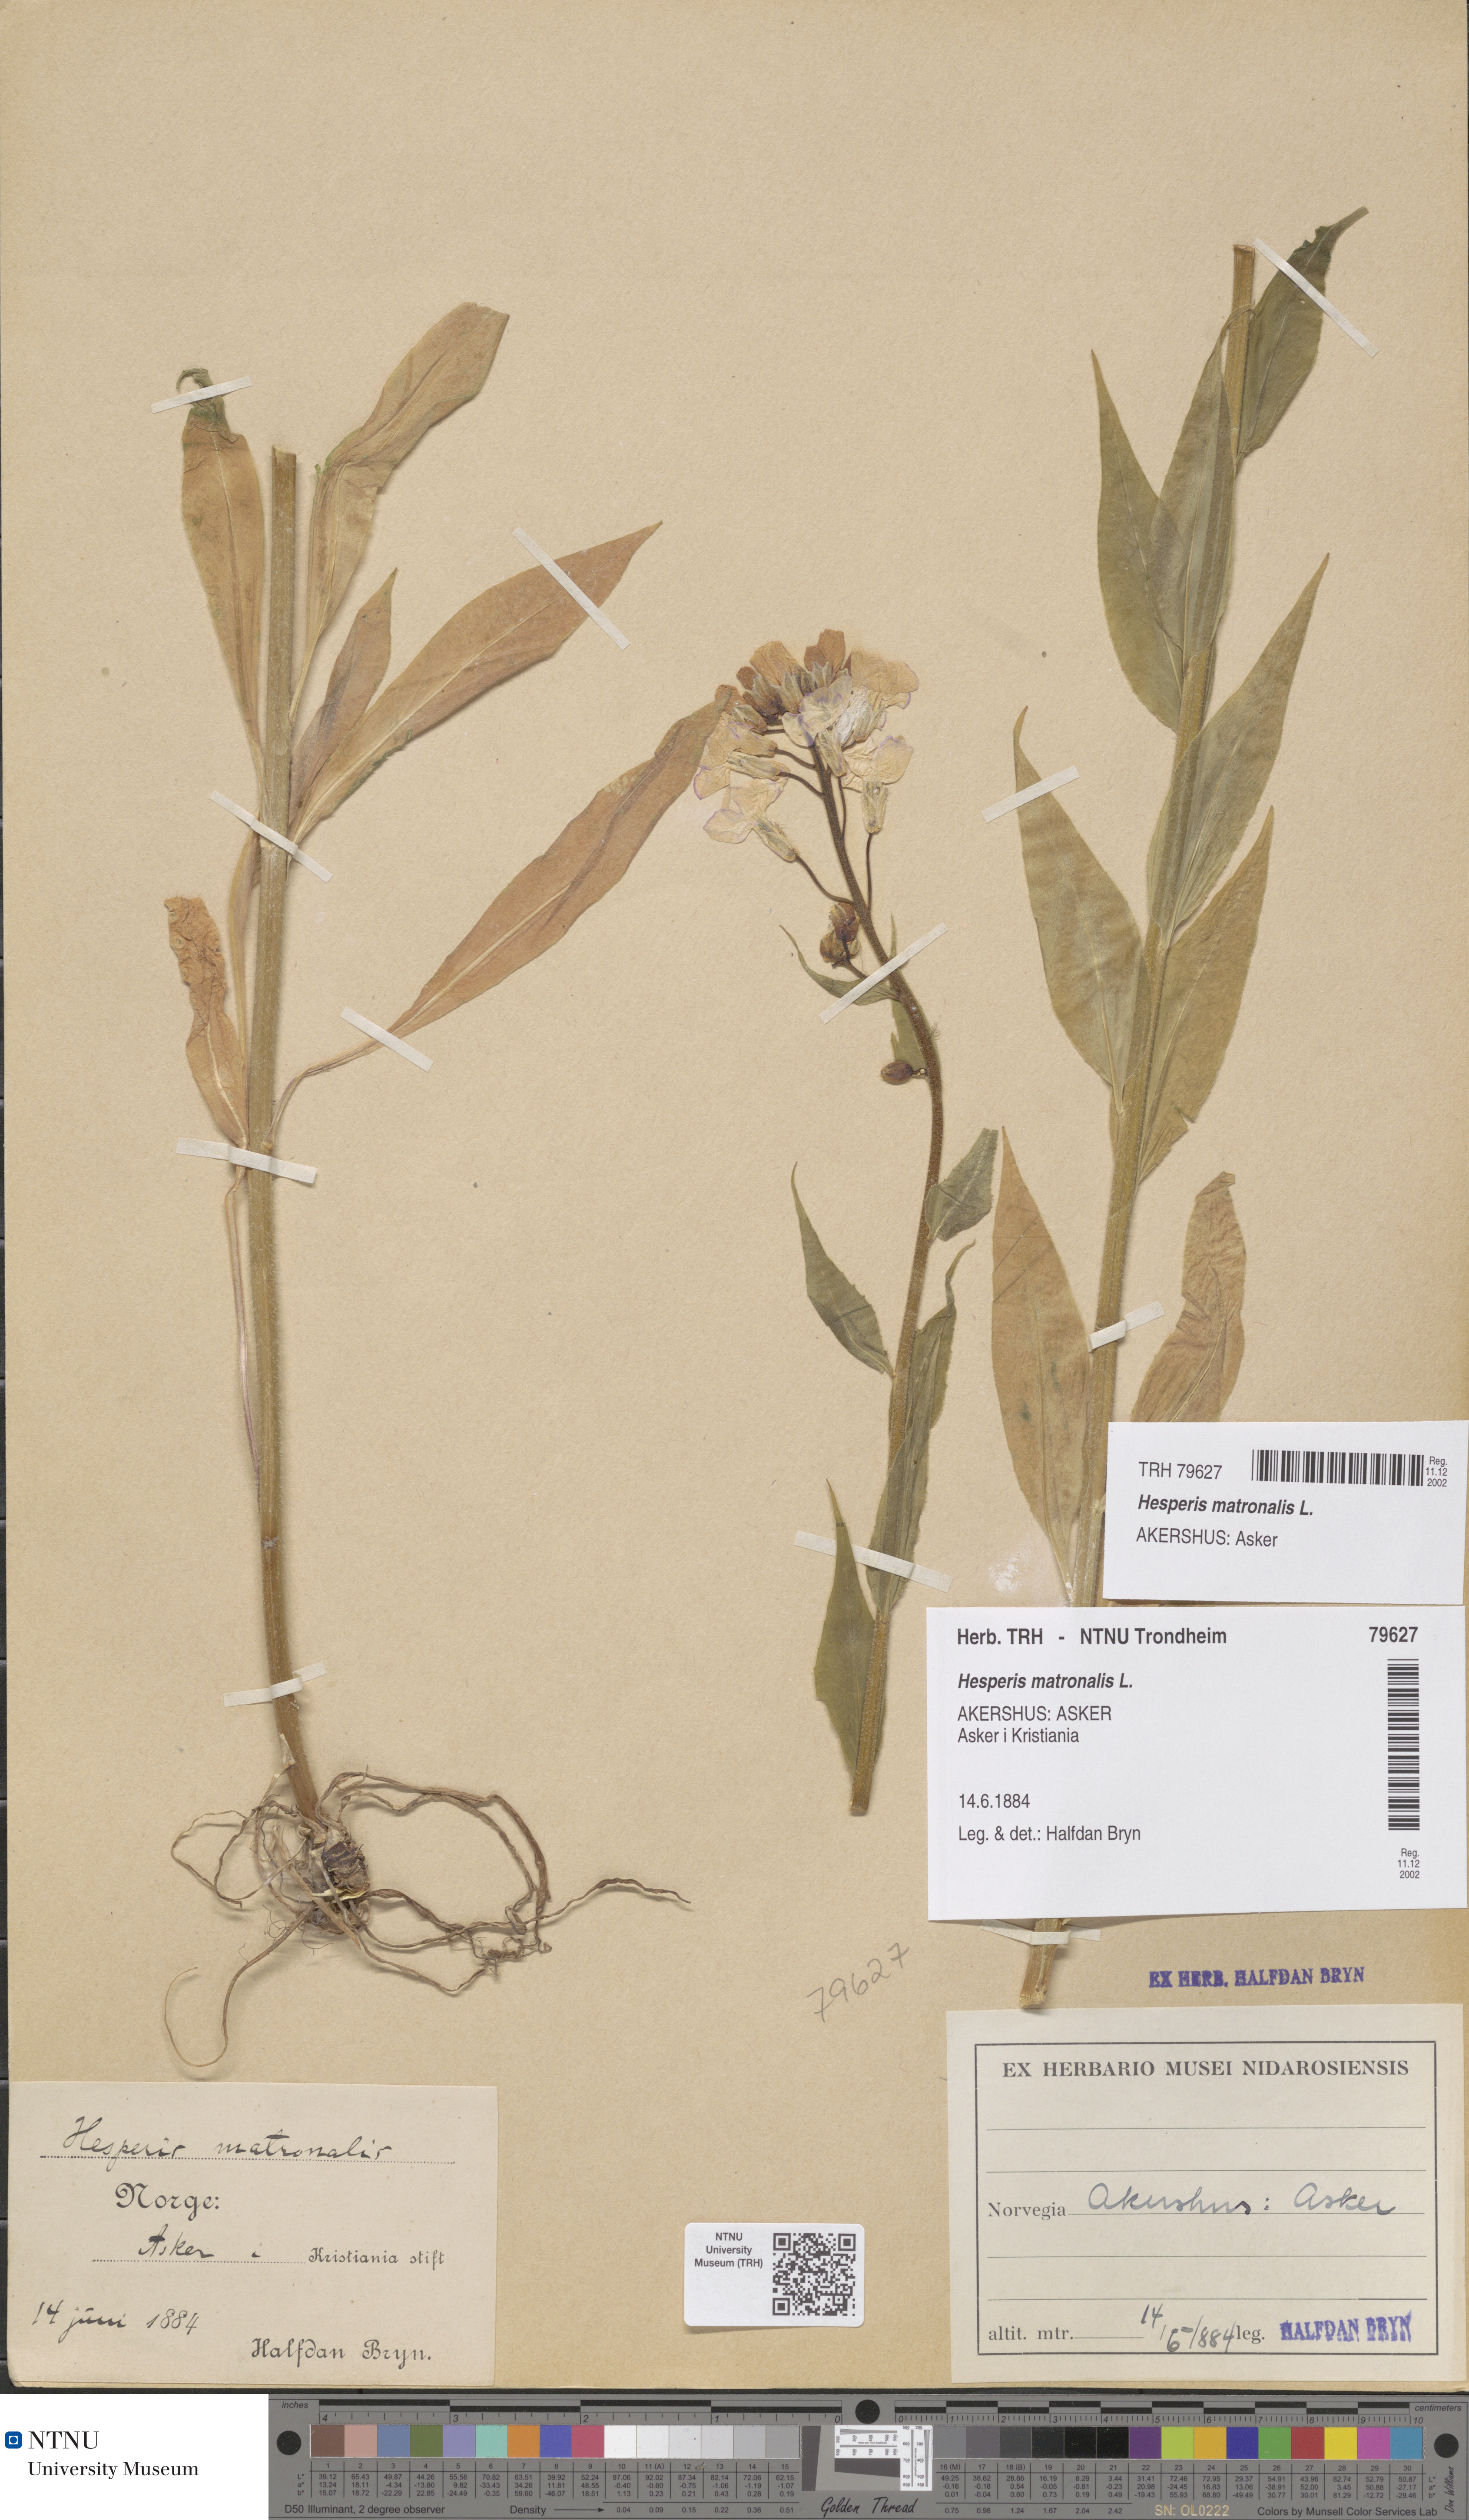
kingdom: Plantae
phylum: Tracheophyta
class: Magnoliopsida
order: Brassicales
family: Brassicaceae
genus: Hesperis
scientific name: Hesperis matronalis
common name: Dame's-violet
